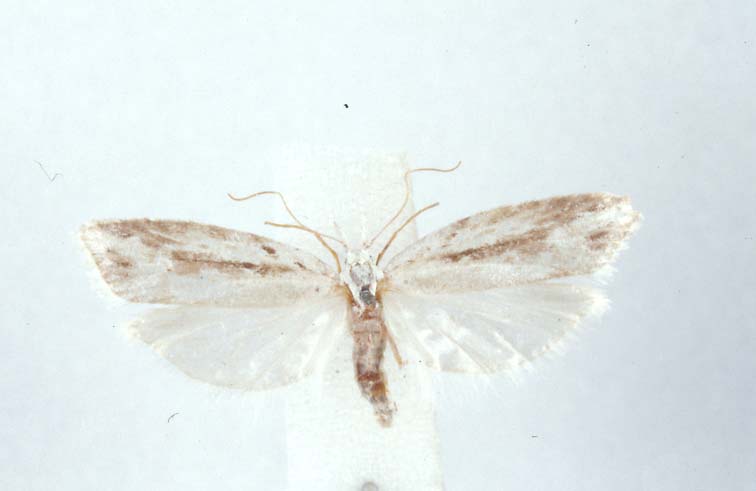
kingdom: Animalia
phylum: Arthropoda
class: Insecta
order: Lepidoptera
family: Carposinidae
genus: Carposina
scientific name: Carposina sanctimonea
